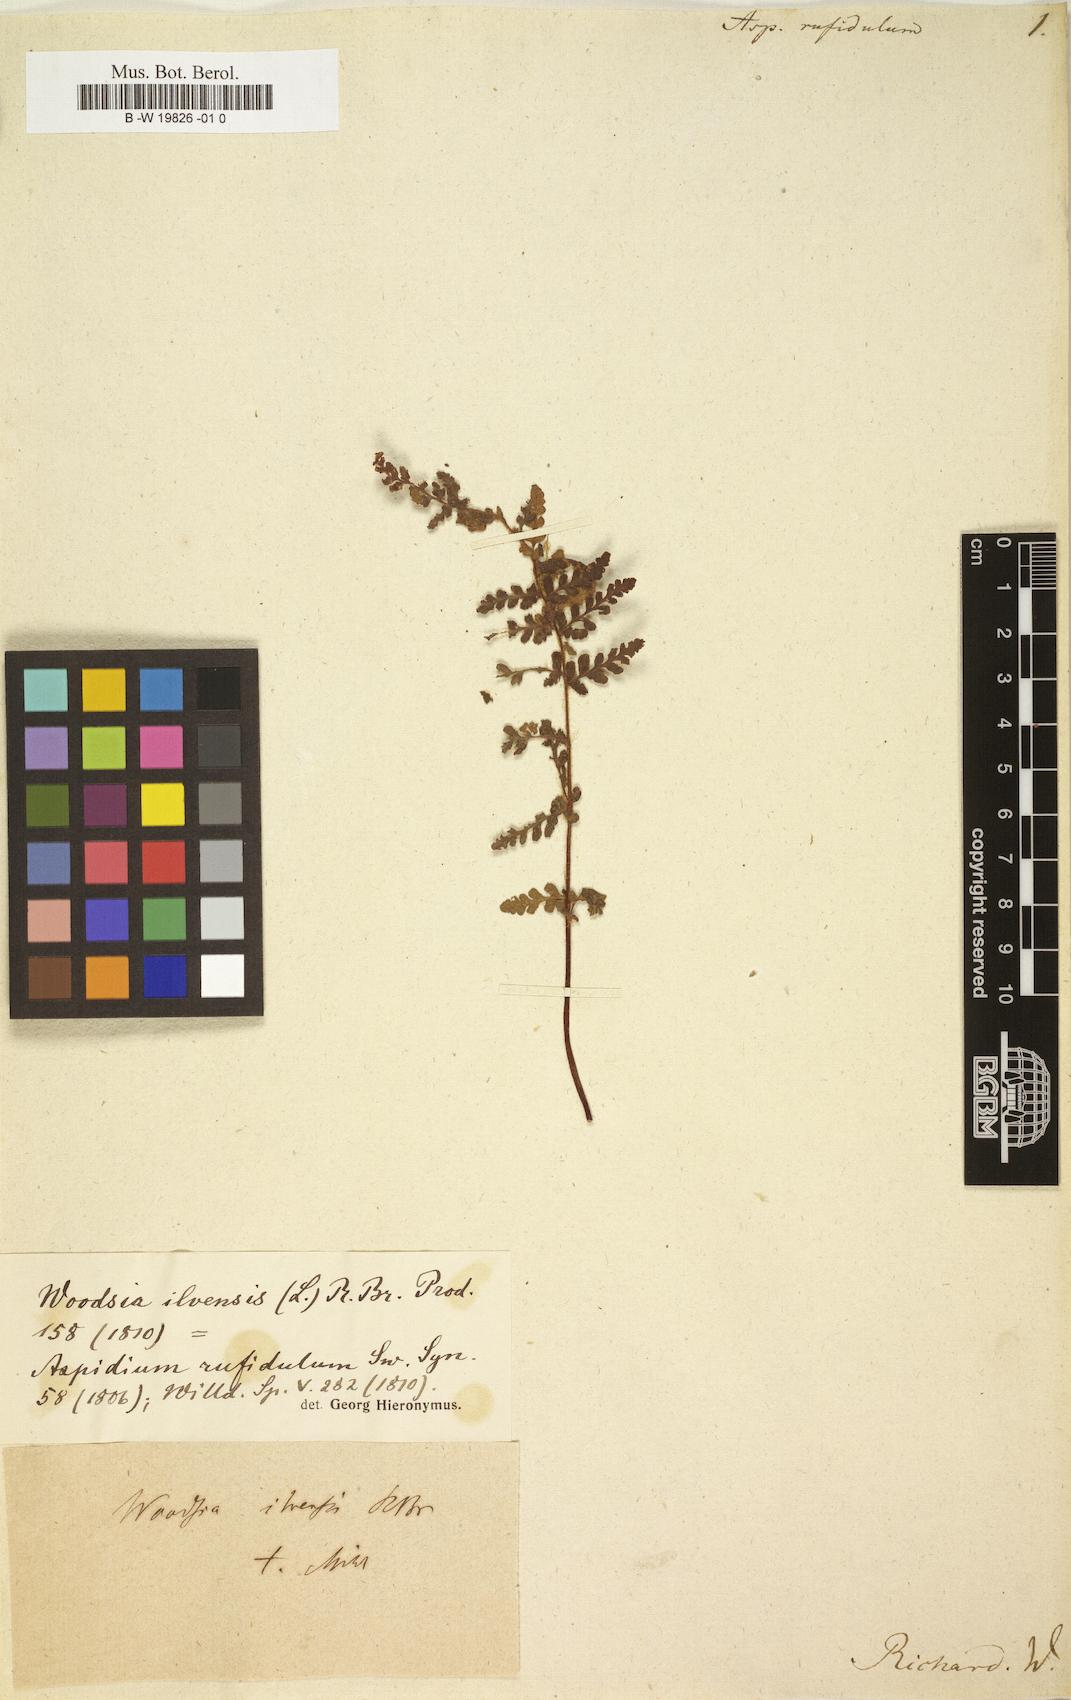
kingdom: Plantae
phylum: Tracheophyta
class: Polypodiopsida
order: Polypodiales
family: Woodsiaceae
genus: Woodsia
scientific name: Woodsia ilvensis
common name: Fragrant woodsia
